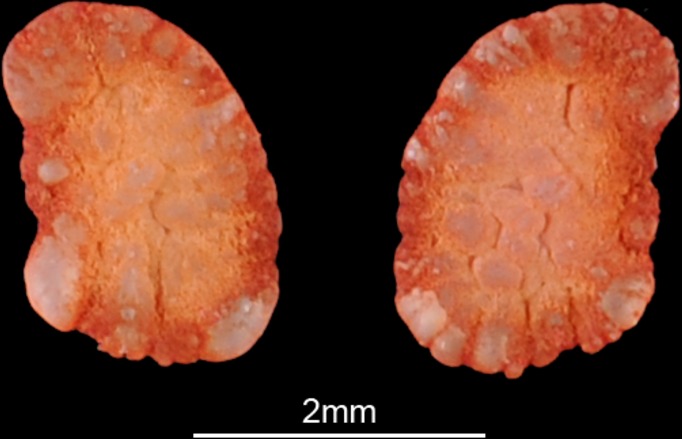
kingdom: Animalia
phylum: Chordata
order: Siluriformes
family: Schilbeidae
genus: Schilbe
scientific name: Schilbe intermedius
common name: Silver catfish
